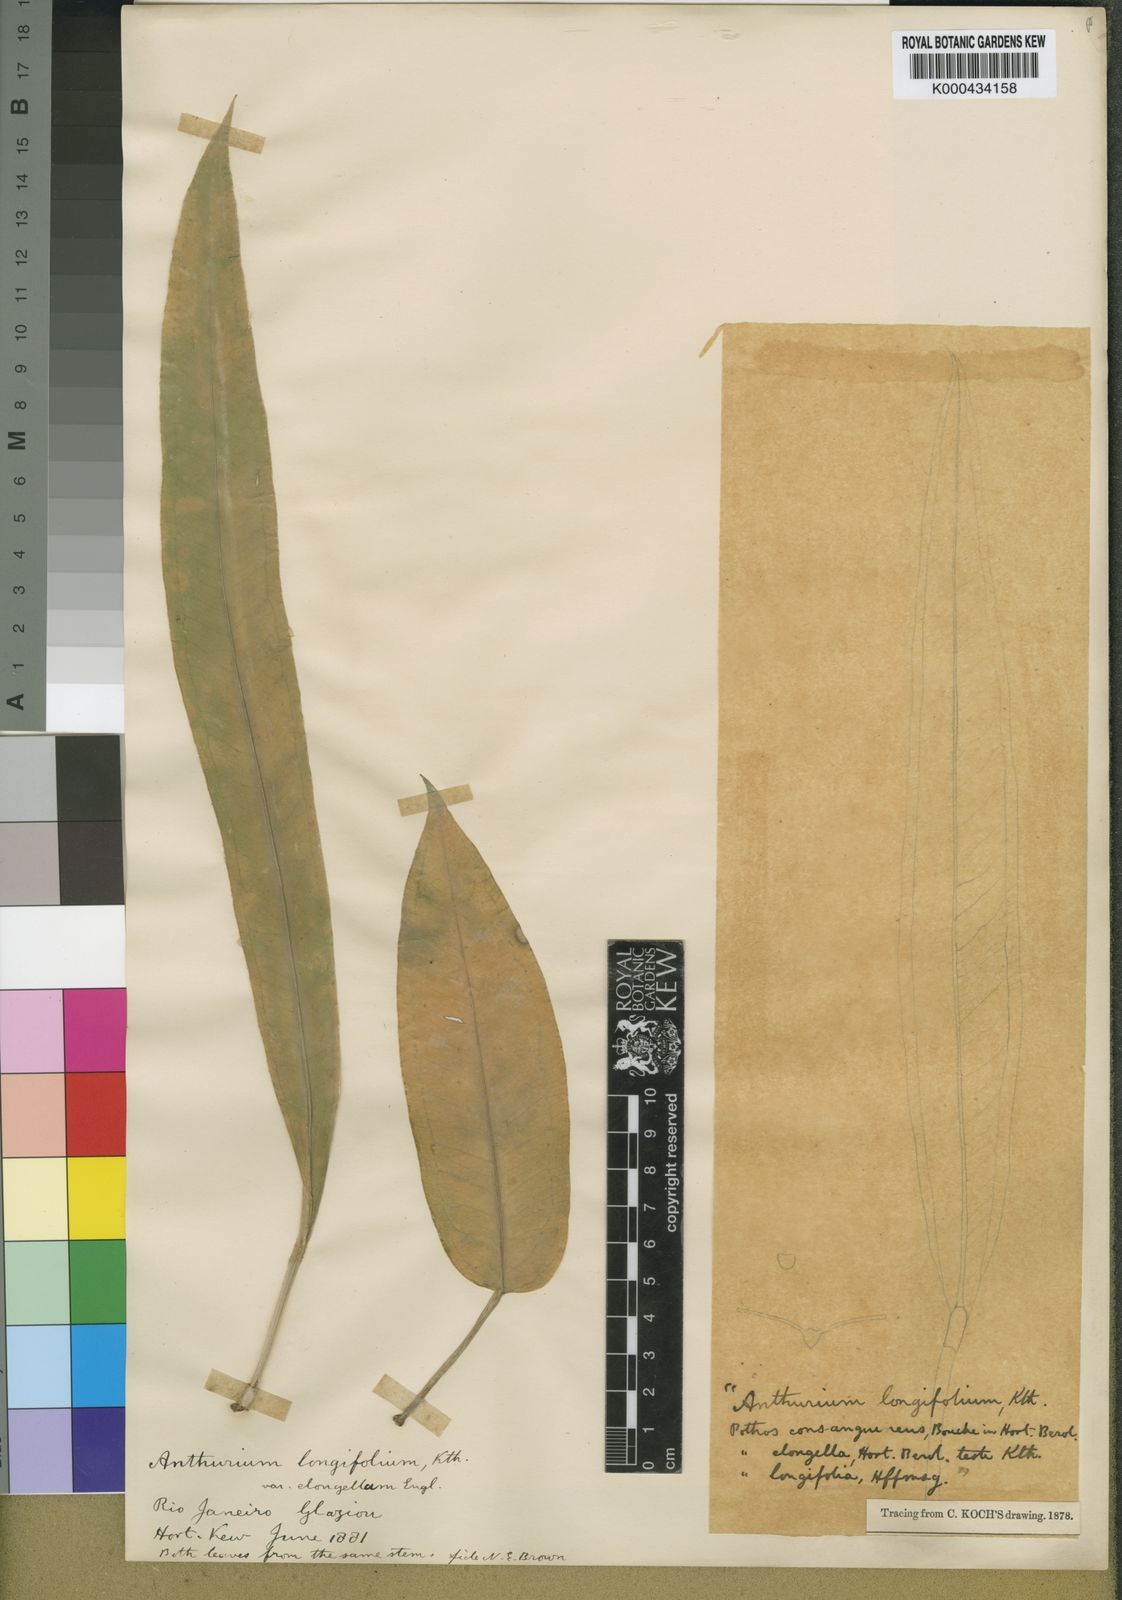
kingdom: Plantae
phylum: Tracheophyta
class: Liliopsida
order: Alismatales
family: Araceae
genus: Anthurium
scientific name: Anthurium longifolium
